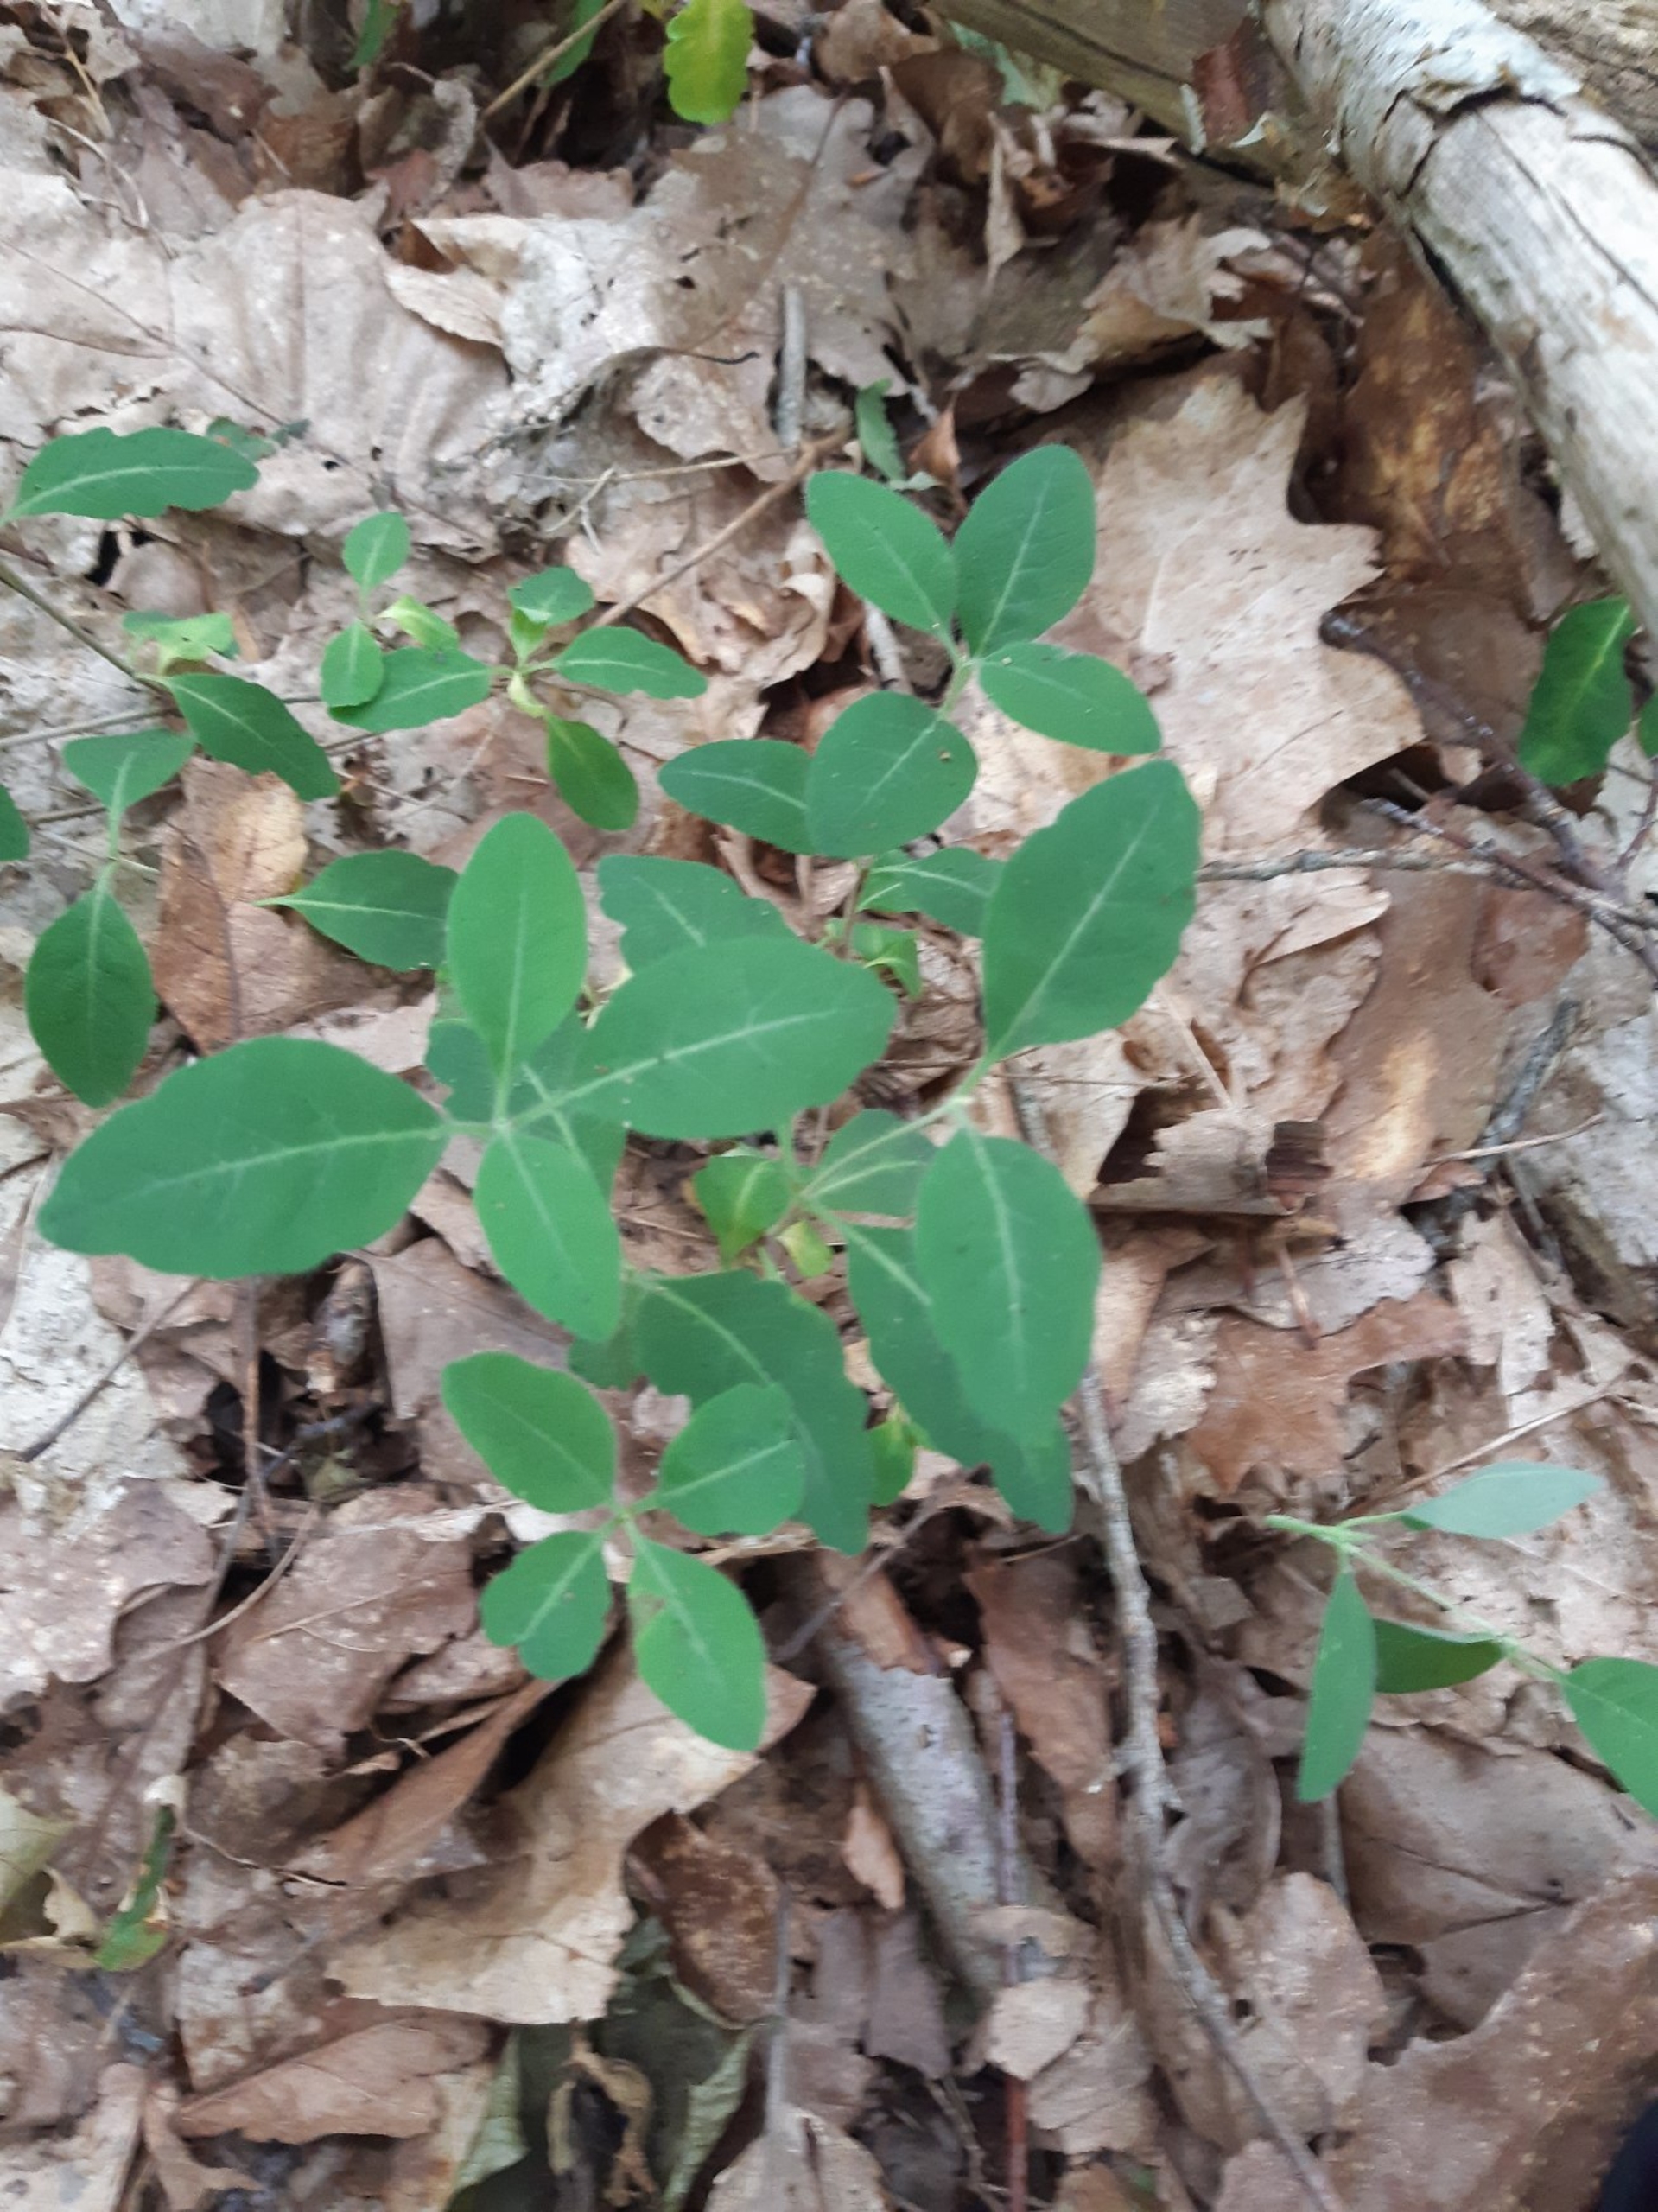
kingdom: Plantae
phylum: Tracheophyta
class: Magnoliopsida
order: Dipsacales
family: Caprifoliaceae
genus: Lonicera
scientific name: Lonicera xylosteum
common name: Dunet gedeblad
